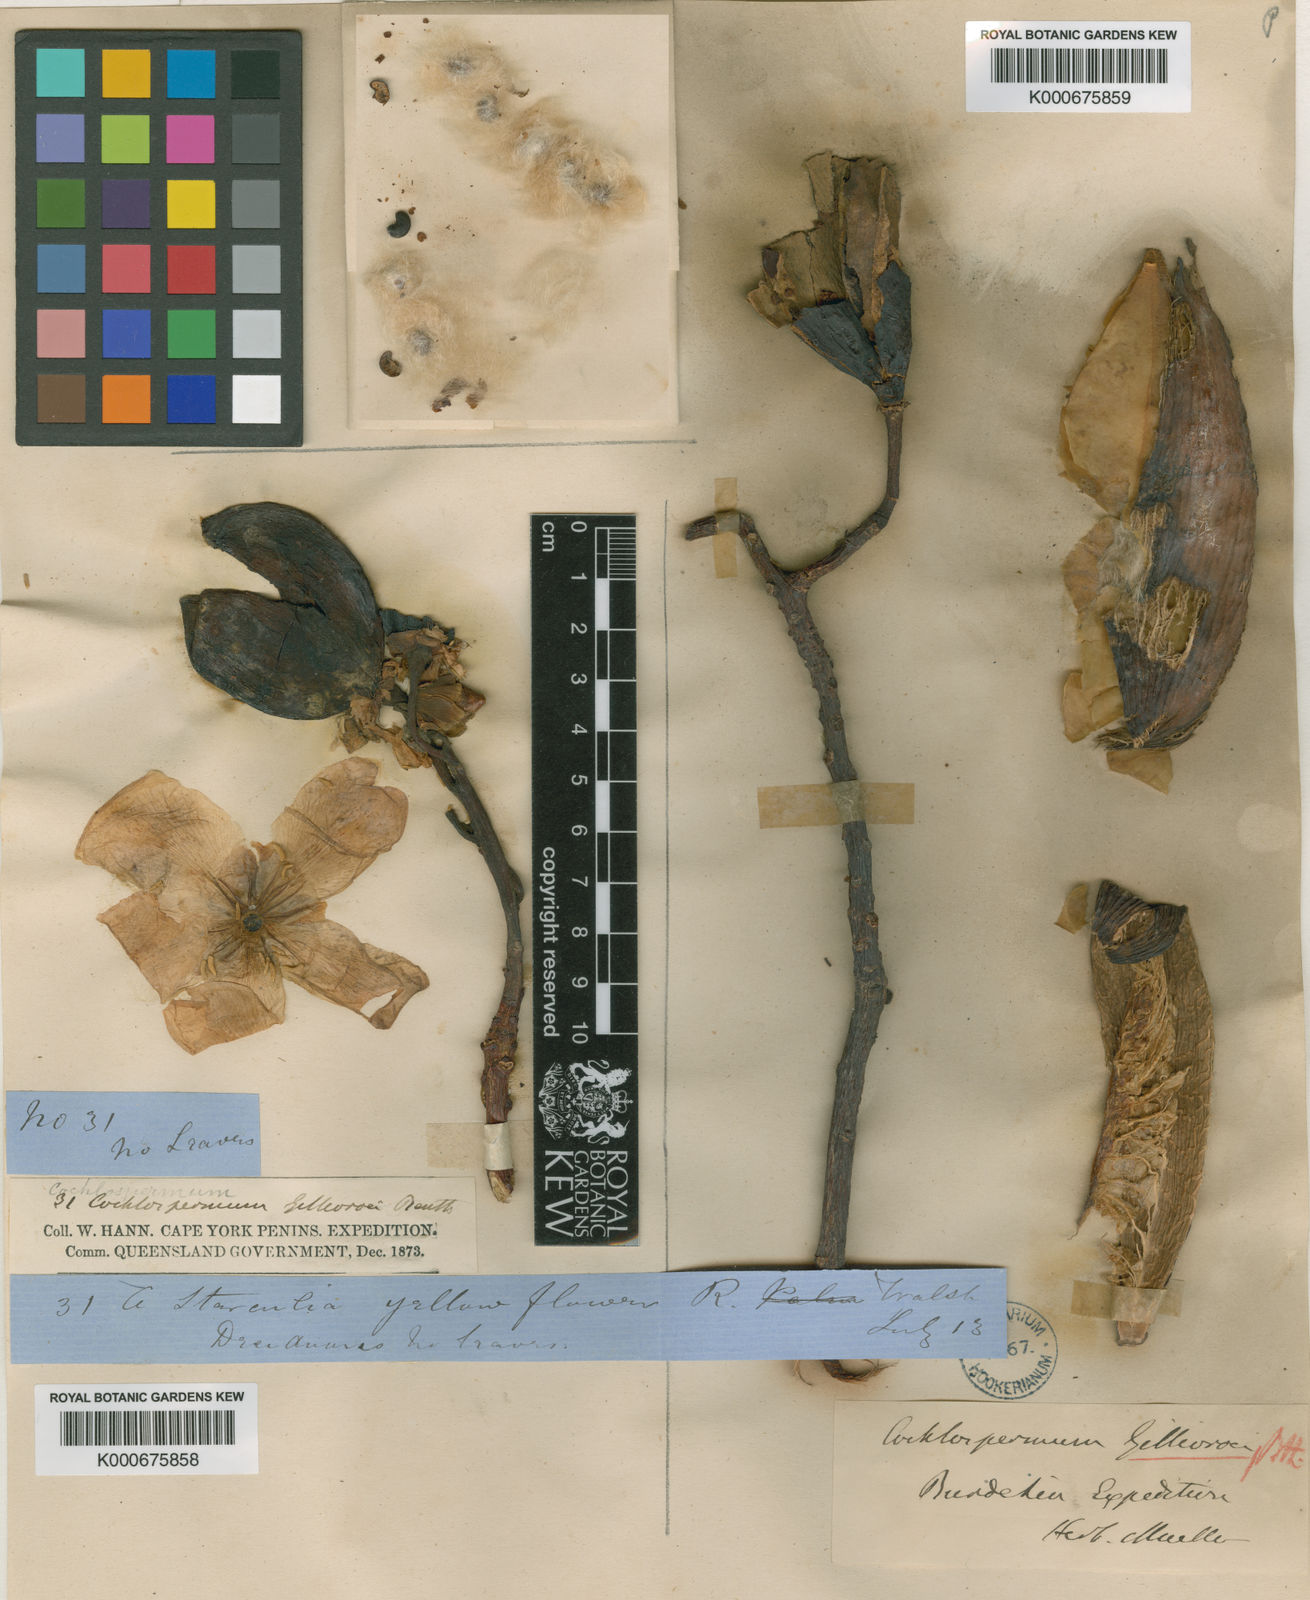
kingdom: Plantae
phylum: Tracheophyta
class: Magnoliopsida
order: Malvales
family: Cochlospermaceae
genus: Cochlospermum
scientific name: Cochlospermum gillivraei
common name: Cottontree
